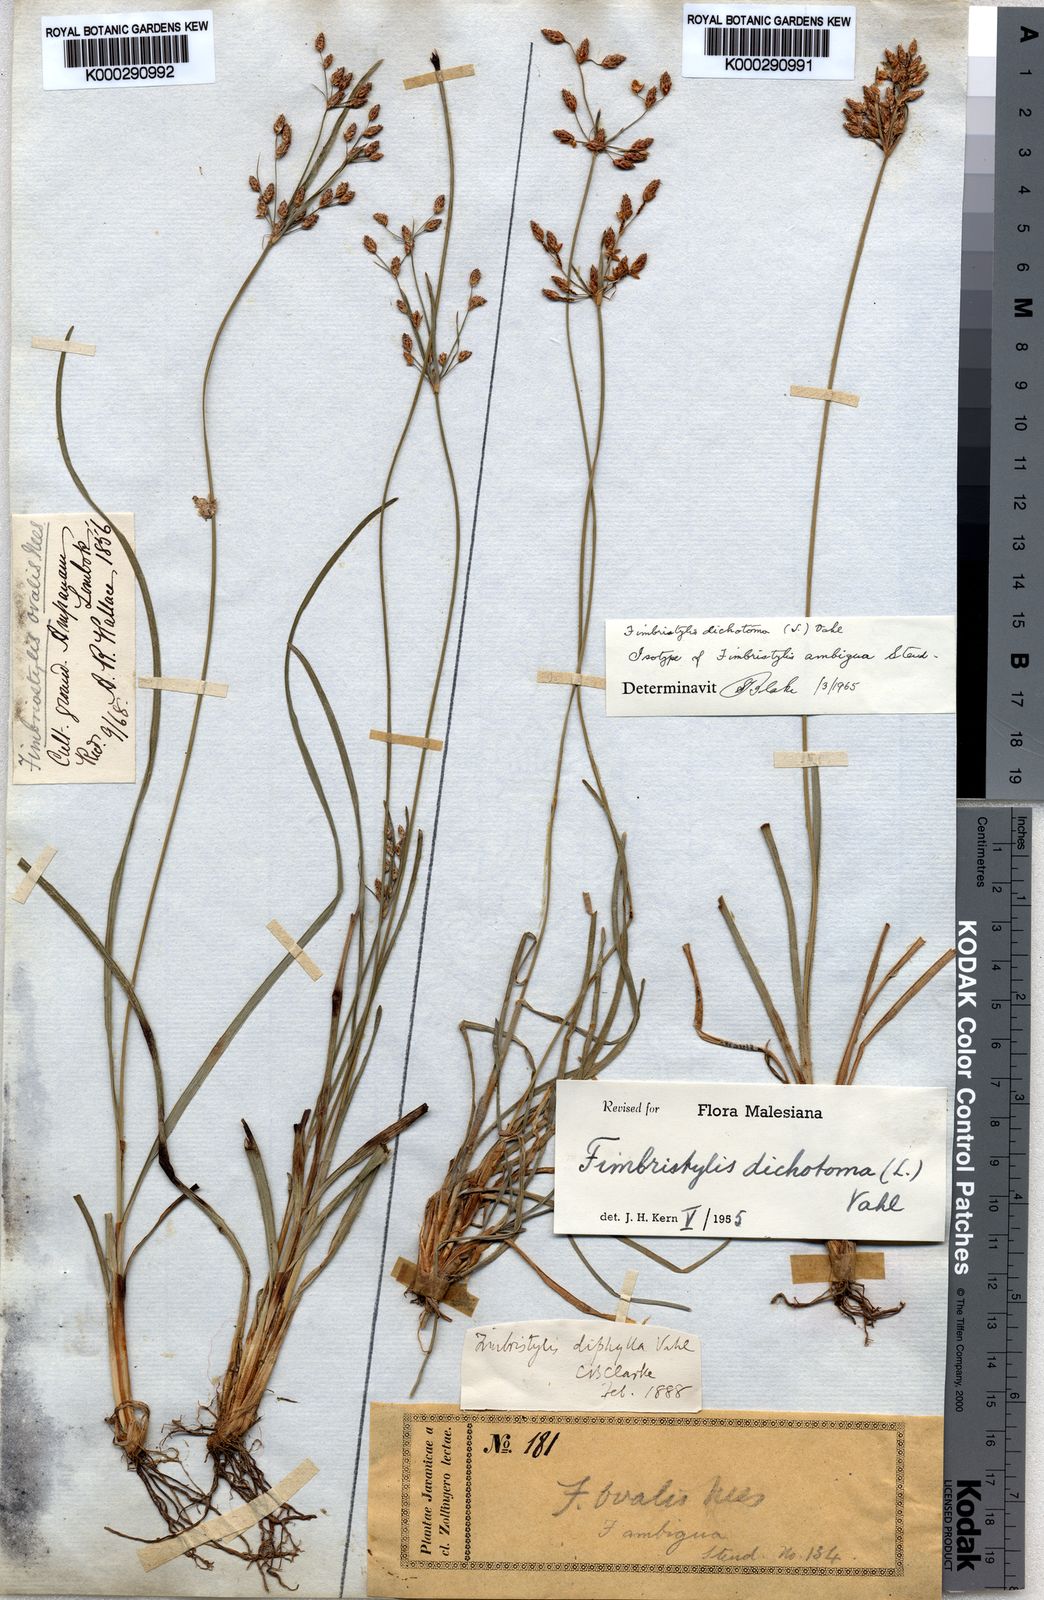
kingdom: Plantae
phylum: Tracheophyta
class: Liliopsida
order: Poales
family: Cyperaceae
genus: Fimbristylis
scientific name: Fimbristylis dichotoma
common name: Forked fimbry
